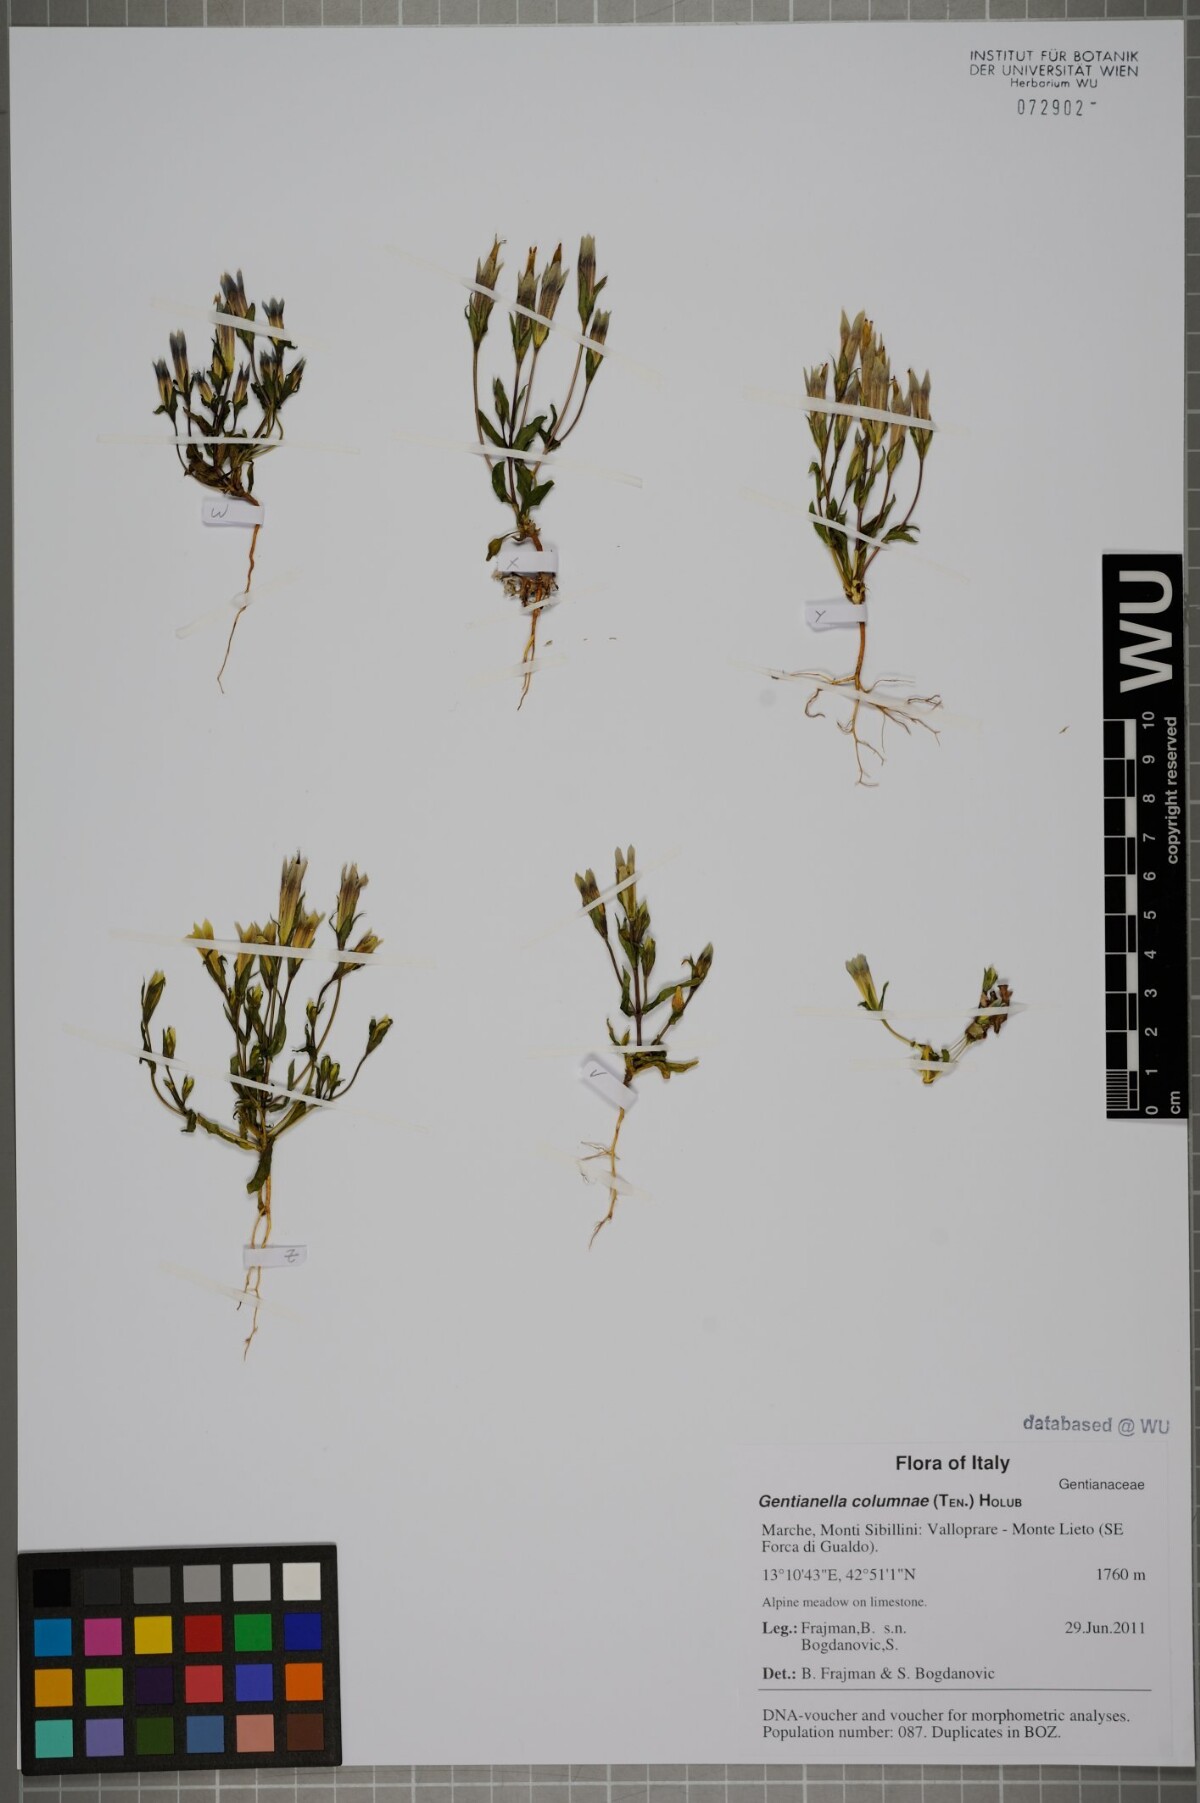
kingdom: Plantae
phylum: Tracheophyta
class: Magnoliopsida
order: Gentianales
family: Gentianaceae
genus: Gentianella
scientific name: Gentianella columnae
